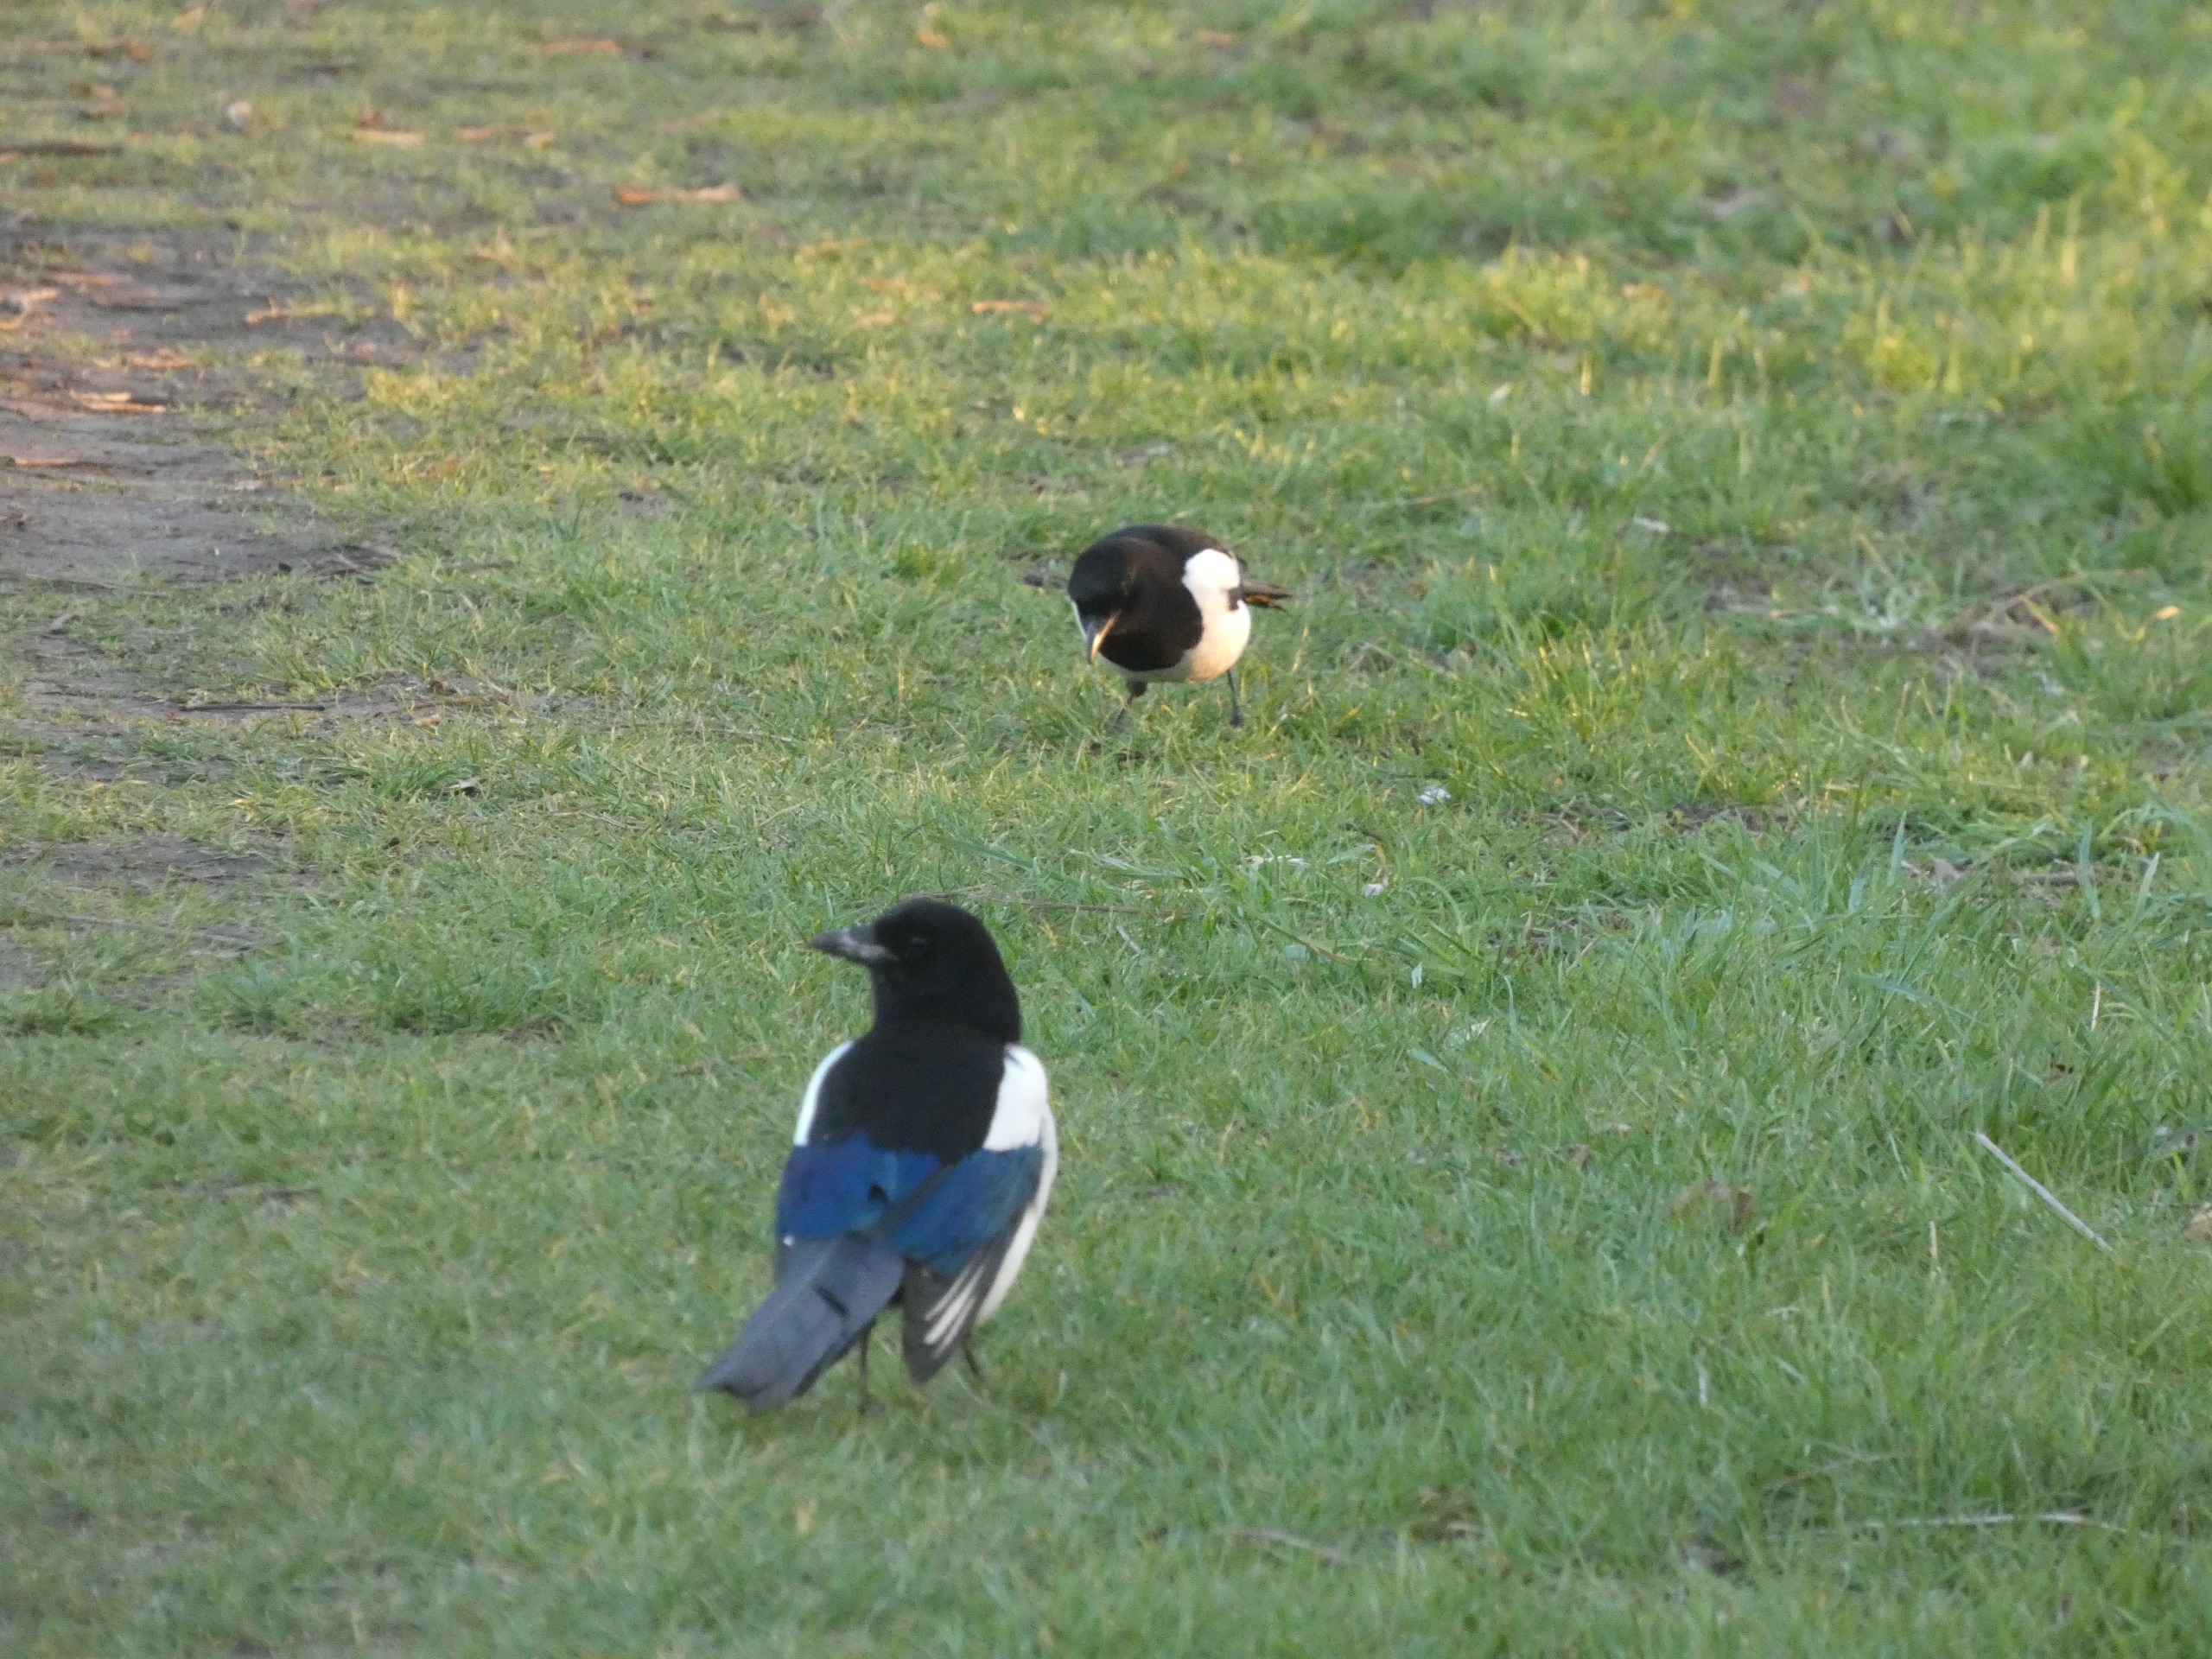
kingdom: Animalia
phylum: Chordata
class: Aves
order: Passeriformes
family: Corvidae
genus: Pica
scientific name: Pica pica
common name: Husskade
